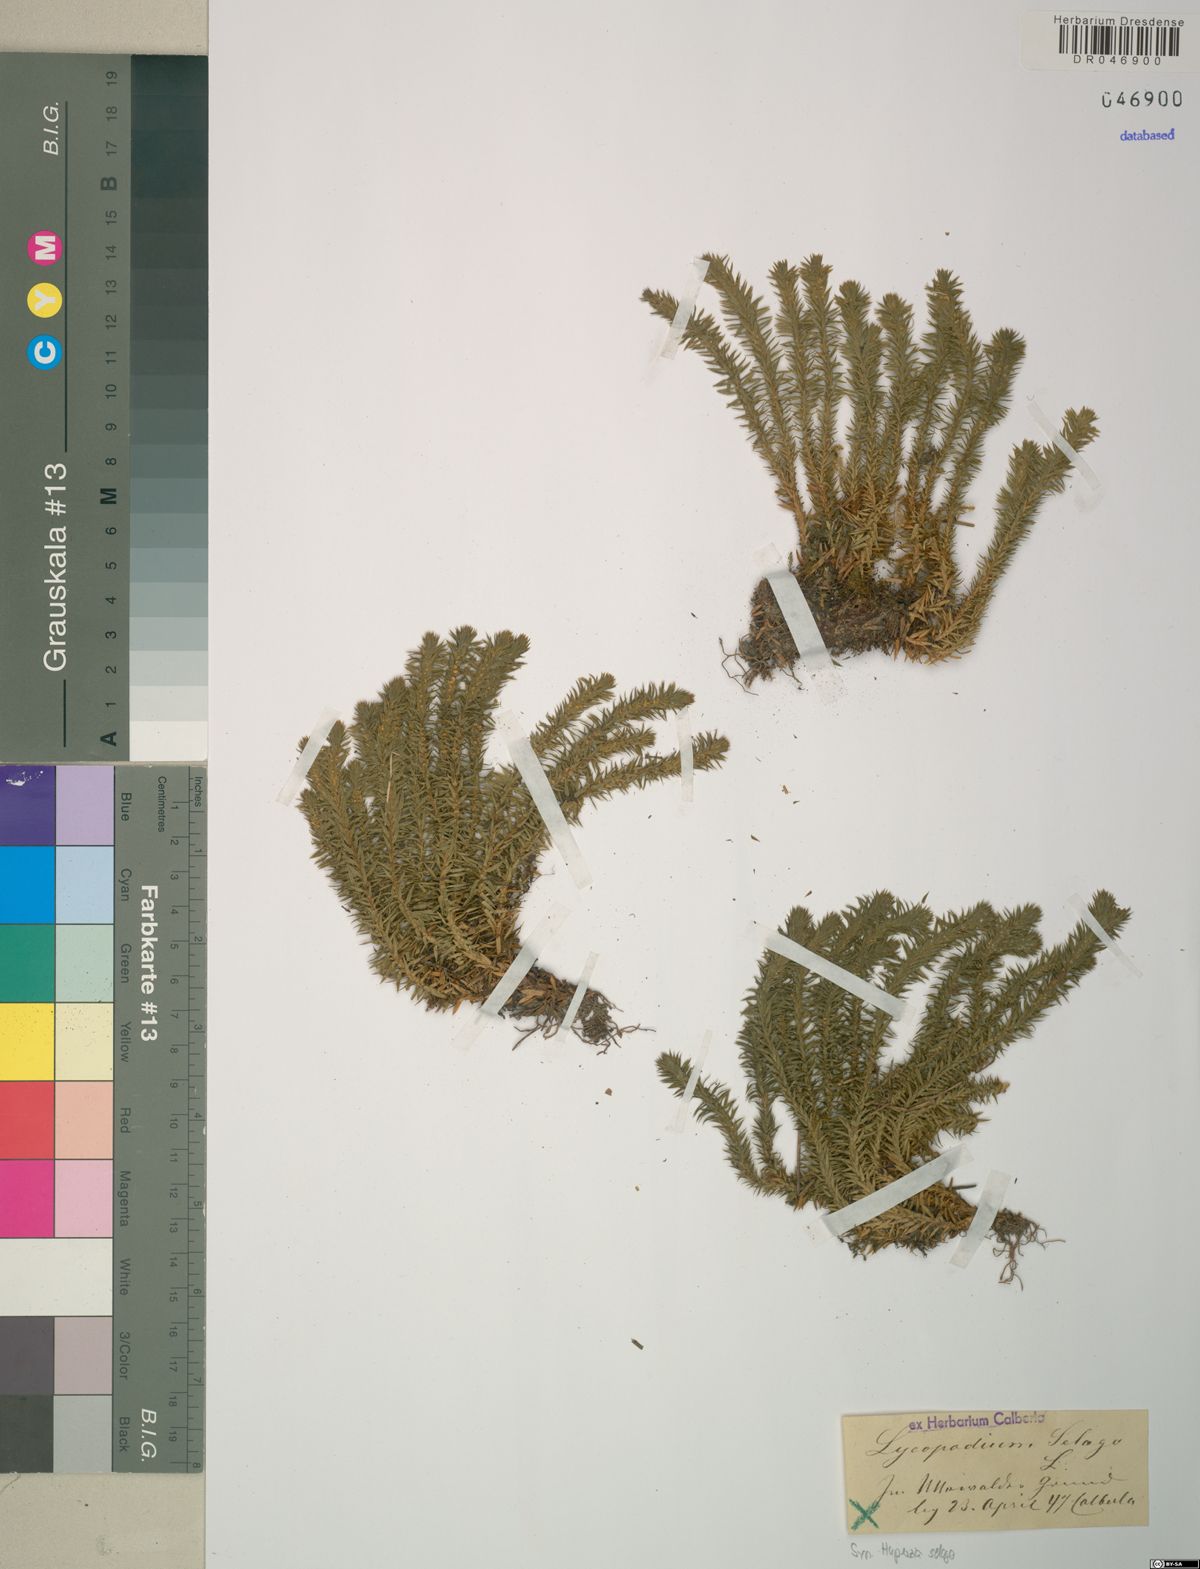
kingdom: Plantae
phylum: Tracheophyta
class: Lycopodiopsida
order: Lycopodiales
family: Lycopodiaceae
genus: Huperzia
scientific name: Huperzia selago
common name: Northern firmoss
